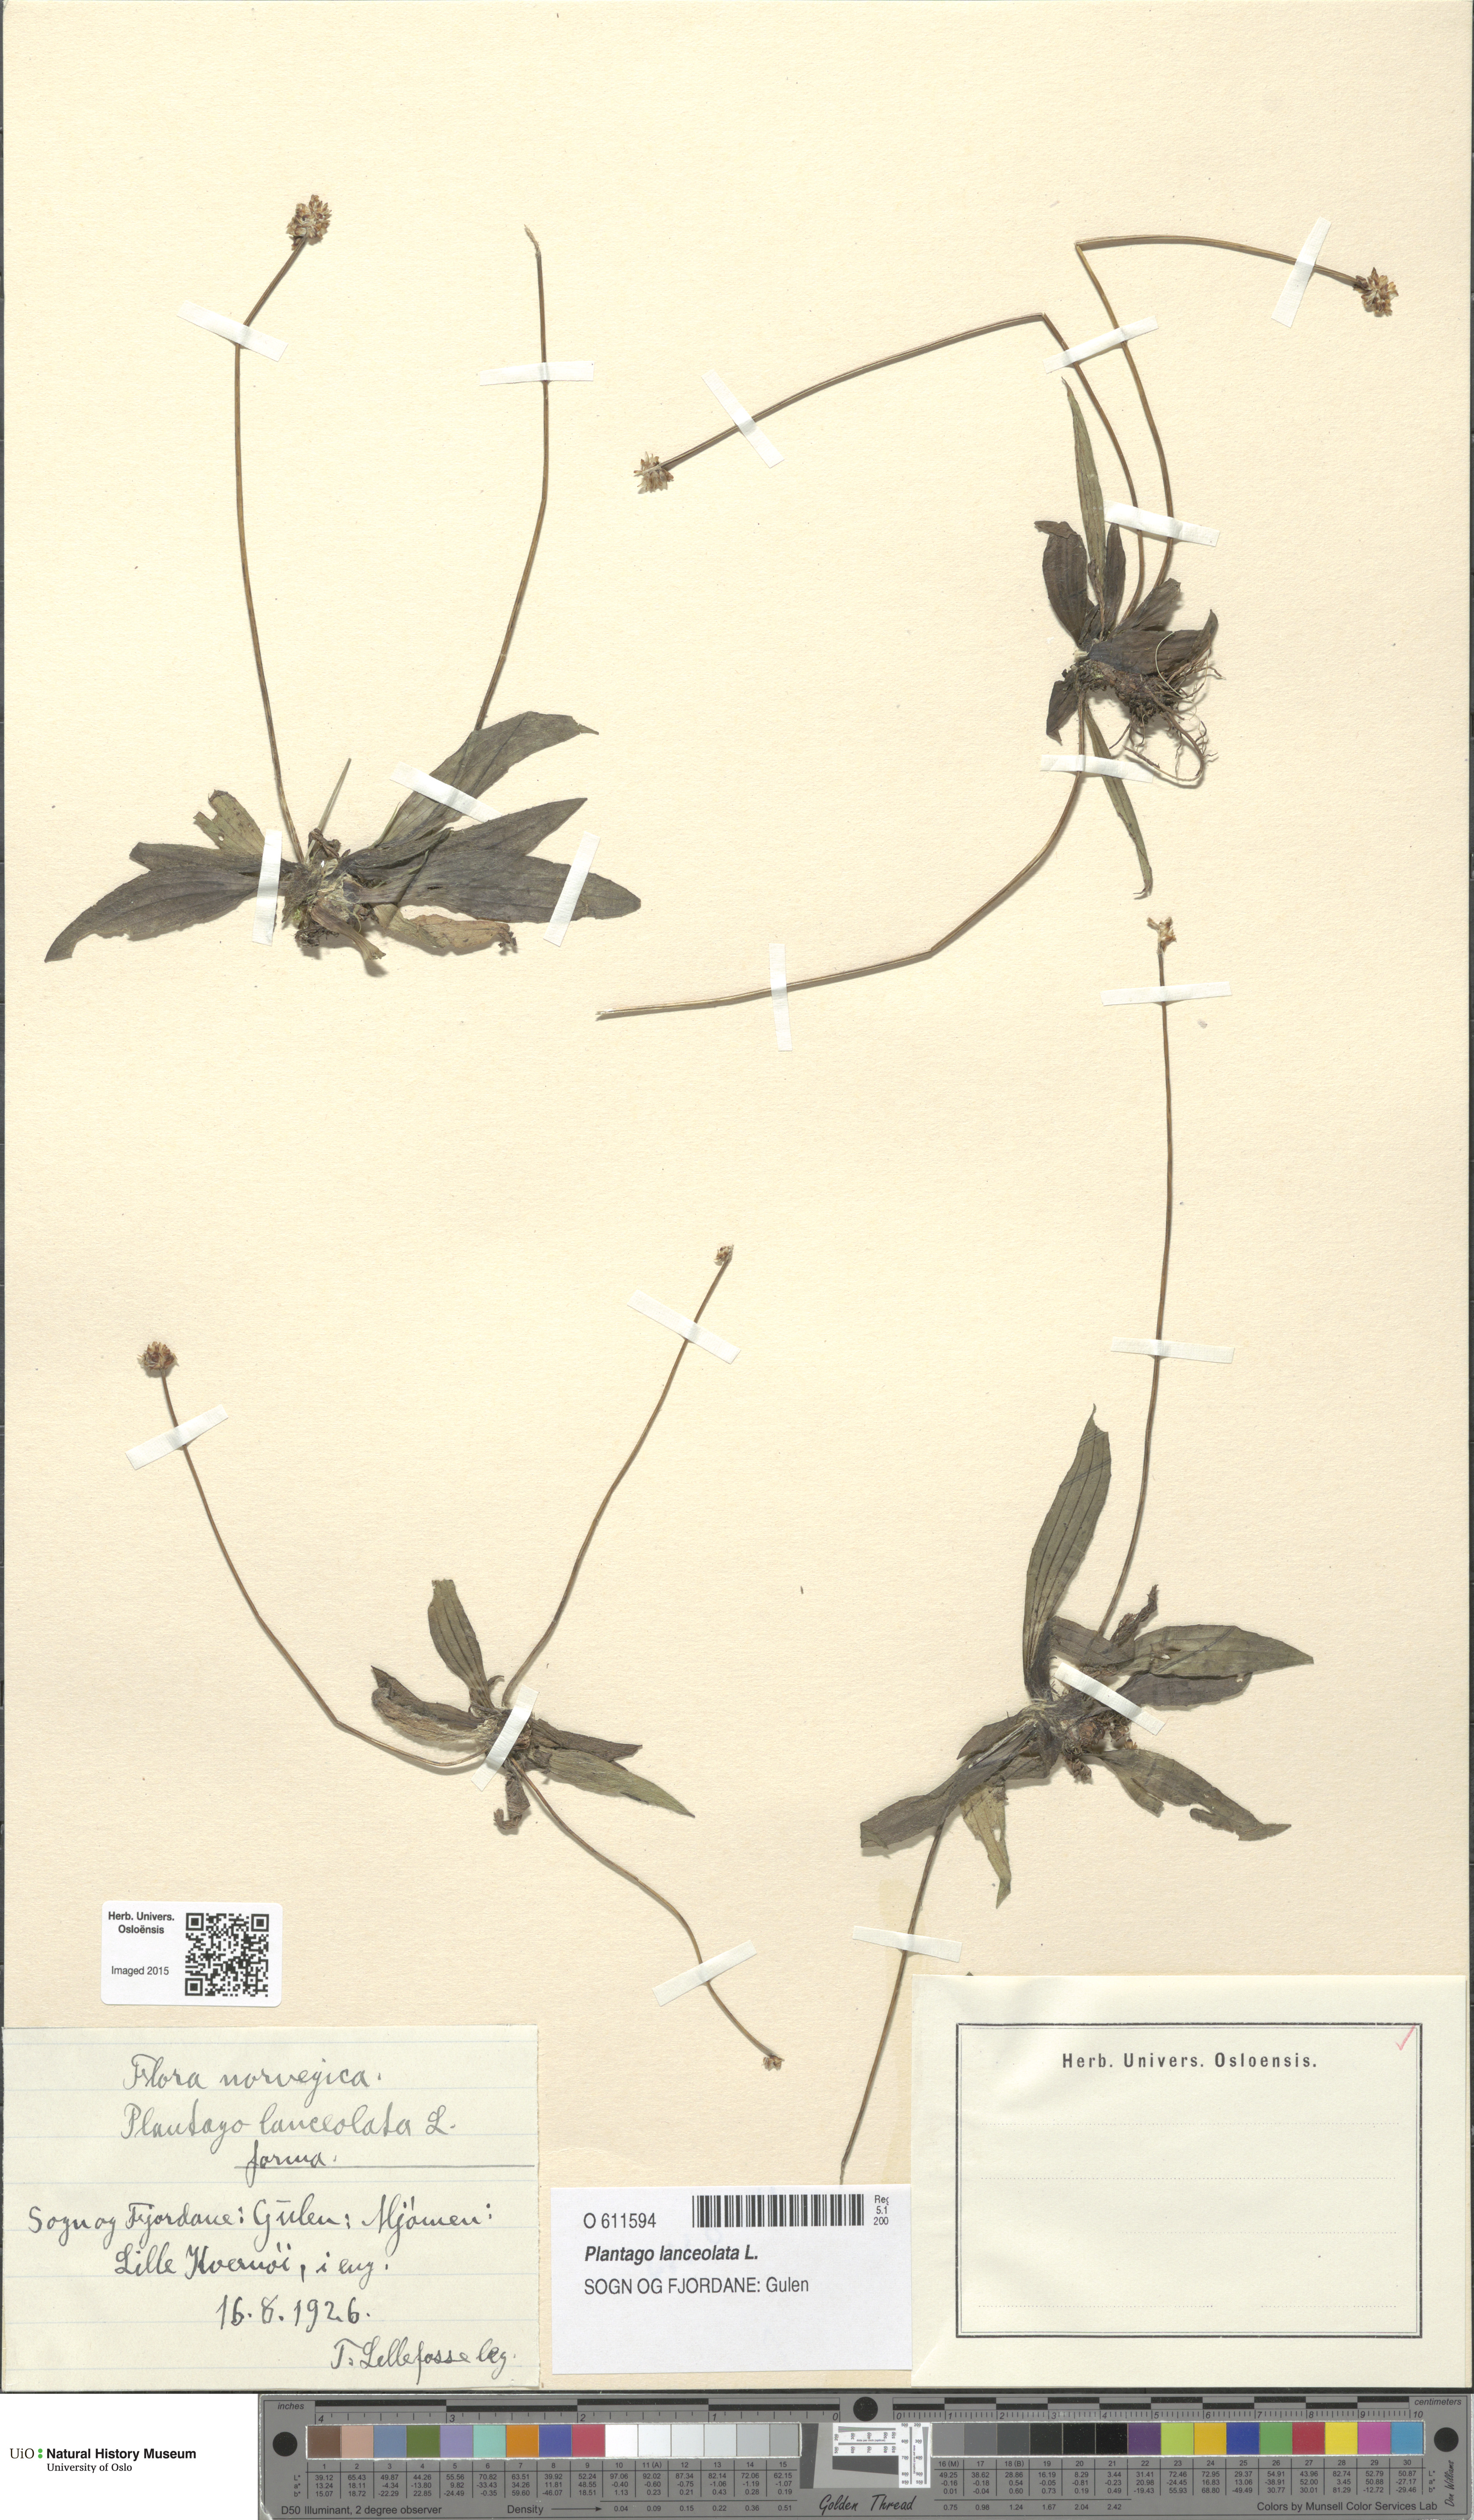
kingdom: Plantae
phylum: Tracheophyta
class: Magnoliopsida
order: Lamiales
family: Plantaginaceae
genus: Plantago
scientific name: Plantago lanceolata
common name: Ribwort plantain
